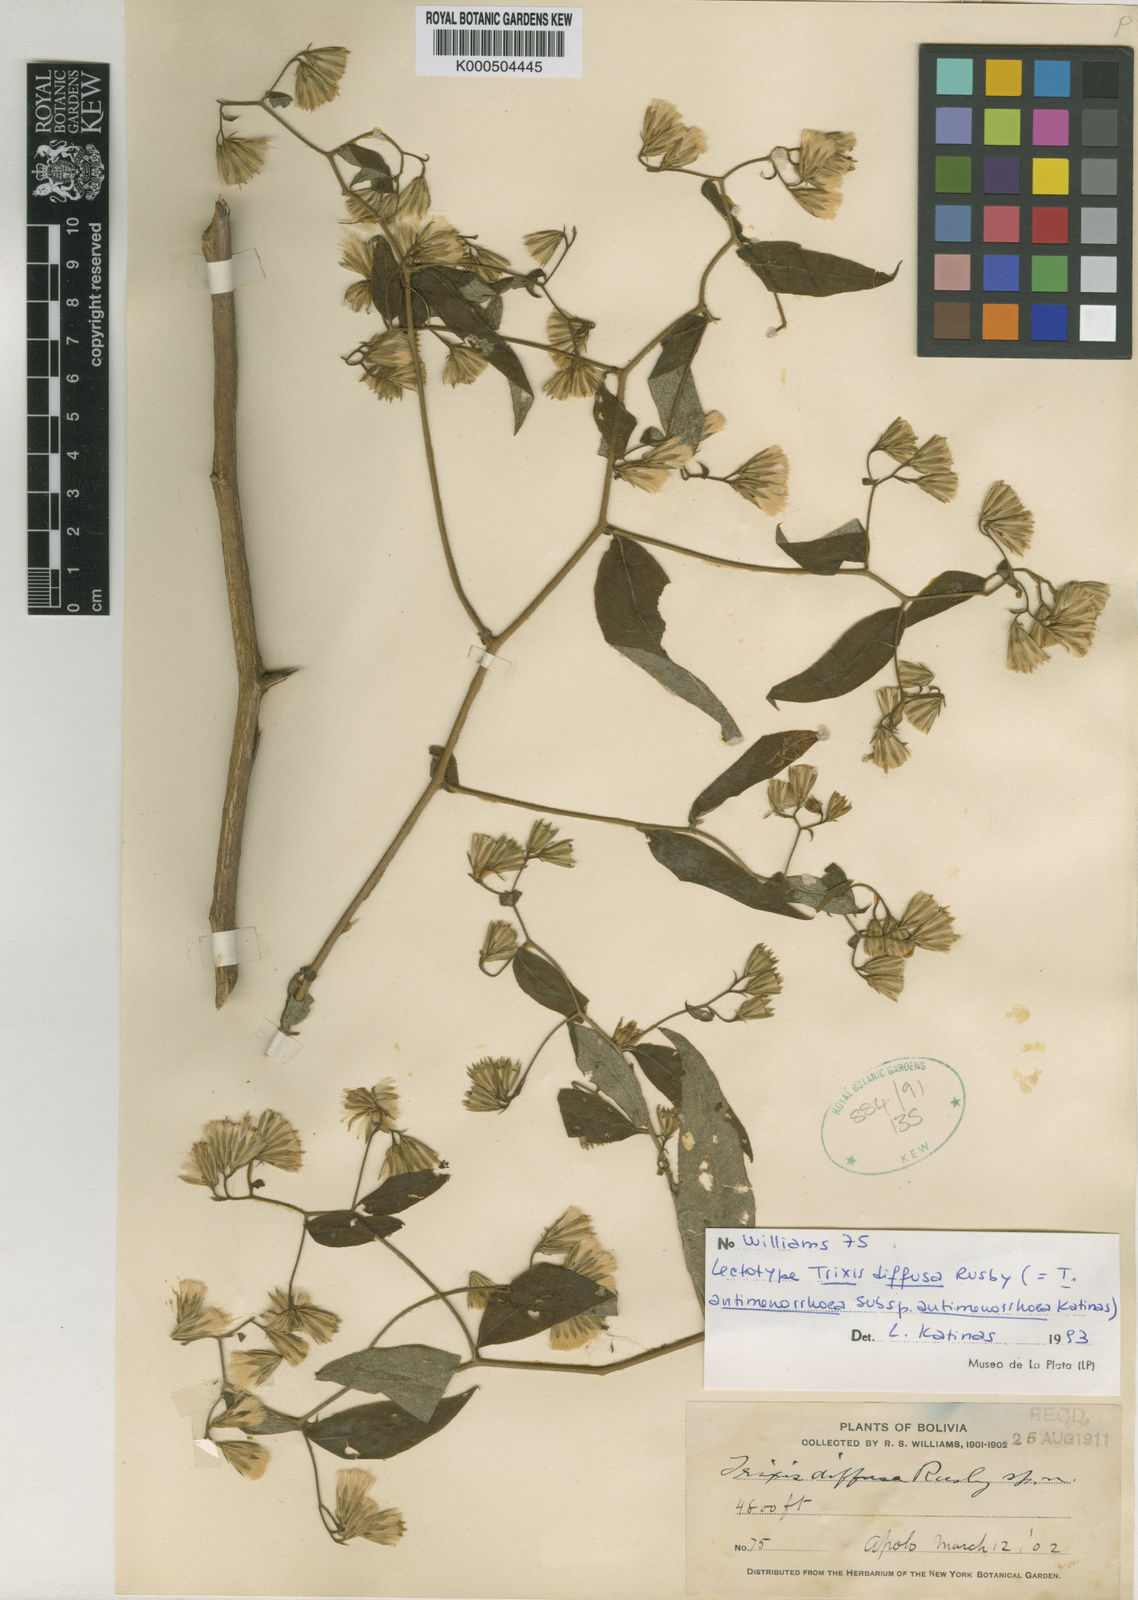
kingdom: Plantae
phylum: Tracheophyta
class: Magnoliopsida
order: Asterales
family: Asteraceae
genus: Trixis
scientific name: Trixis divaricata
